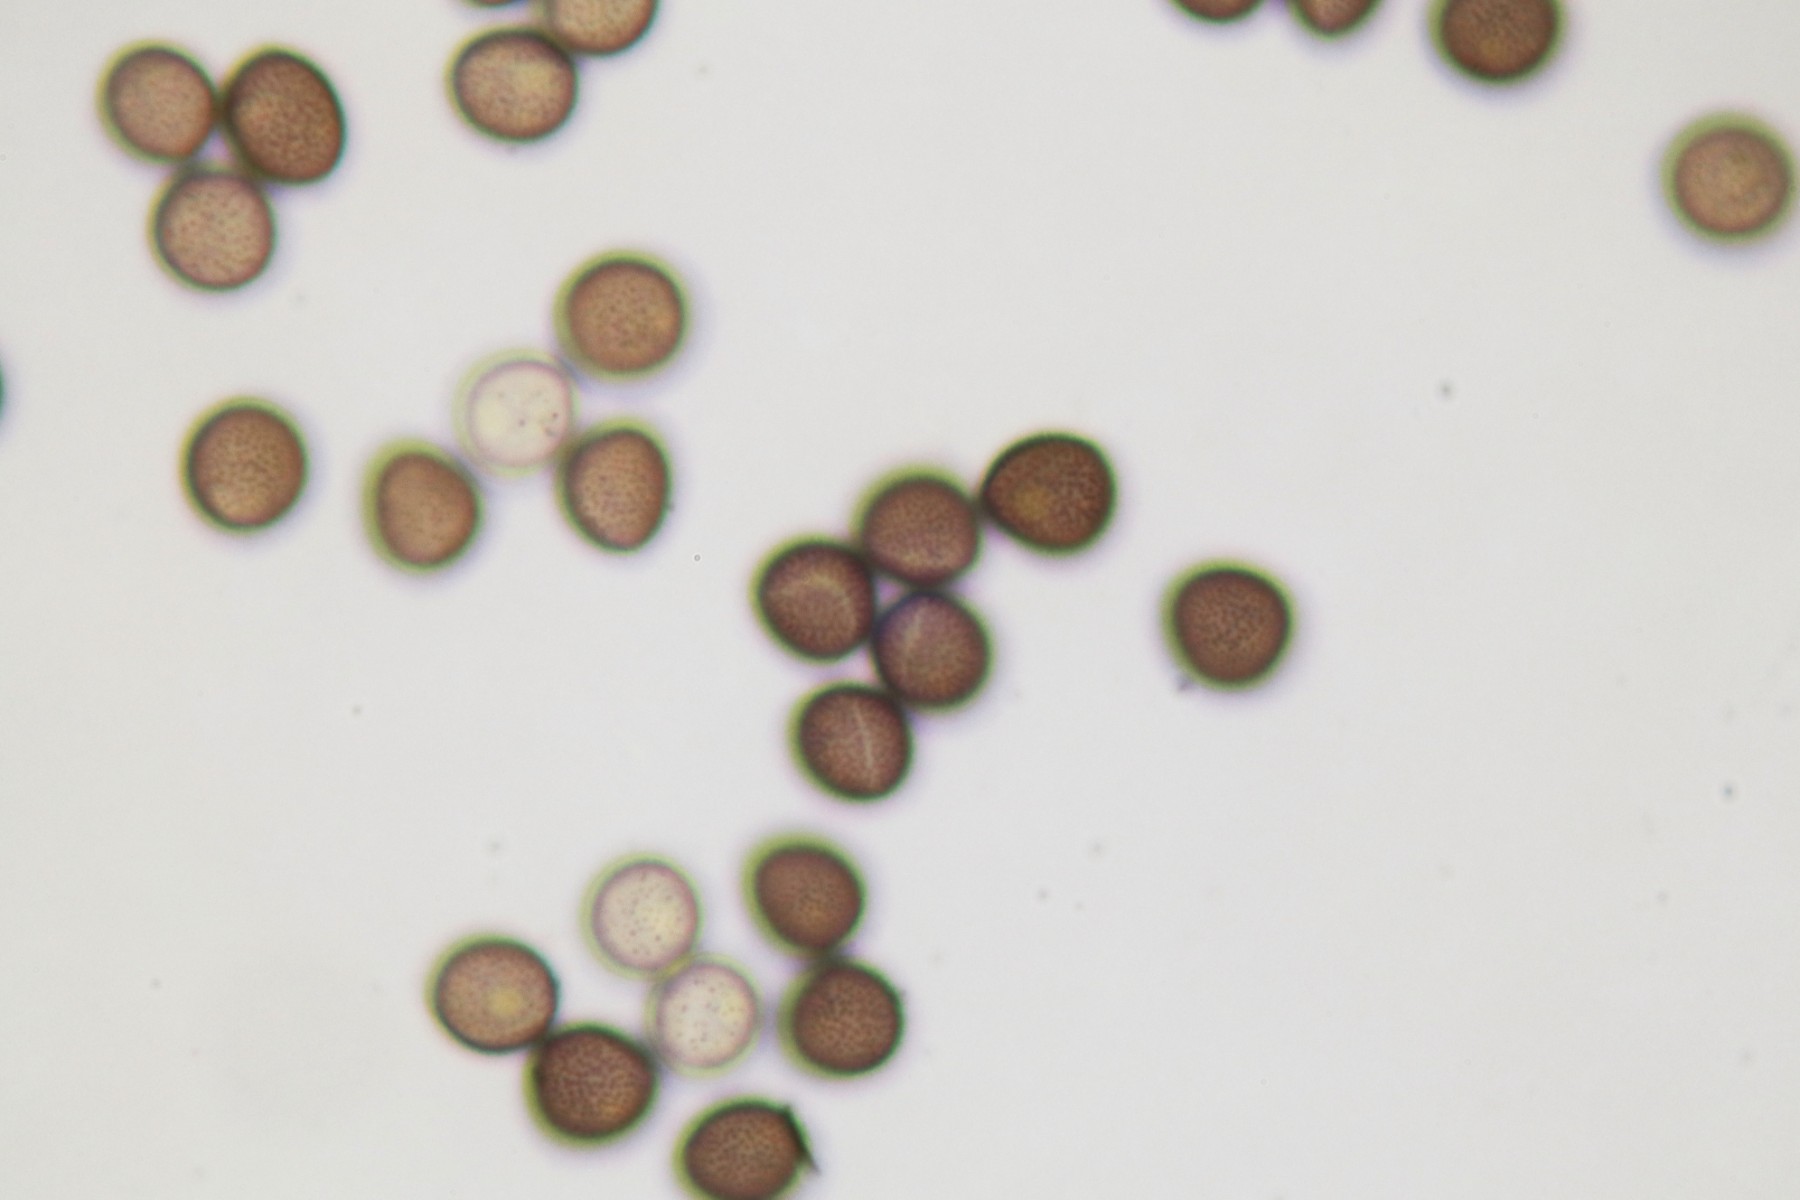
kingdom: Protozoa
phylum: Mycetozoa
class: Myxomycetes
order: Physarales
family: Physaraceae
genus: Badhamia
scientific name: Badhamia goniospora
